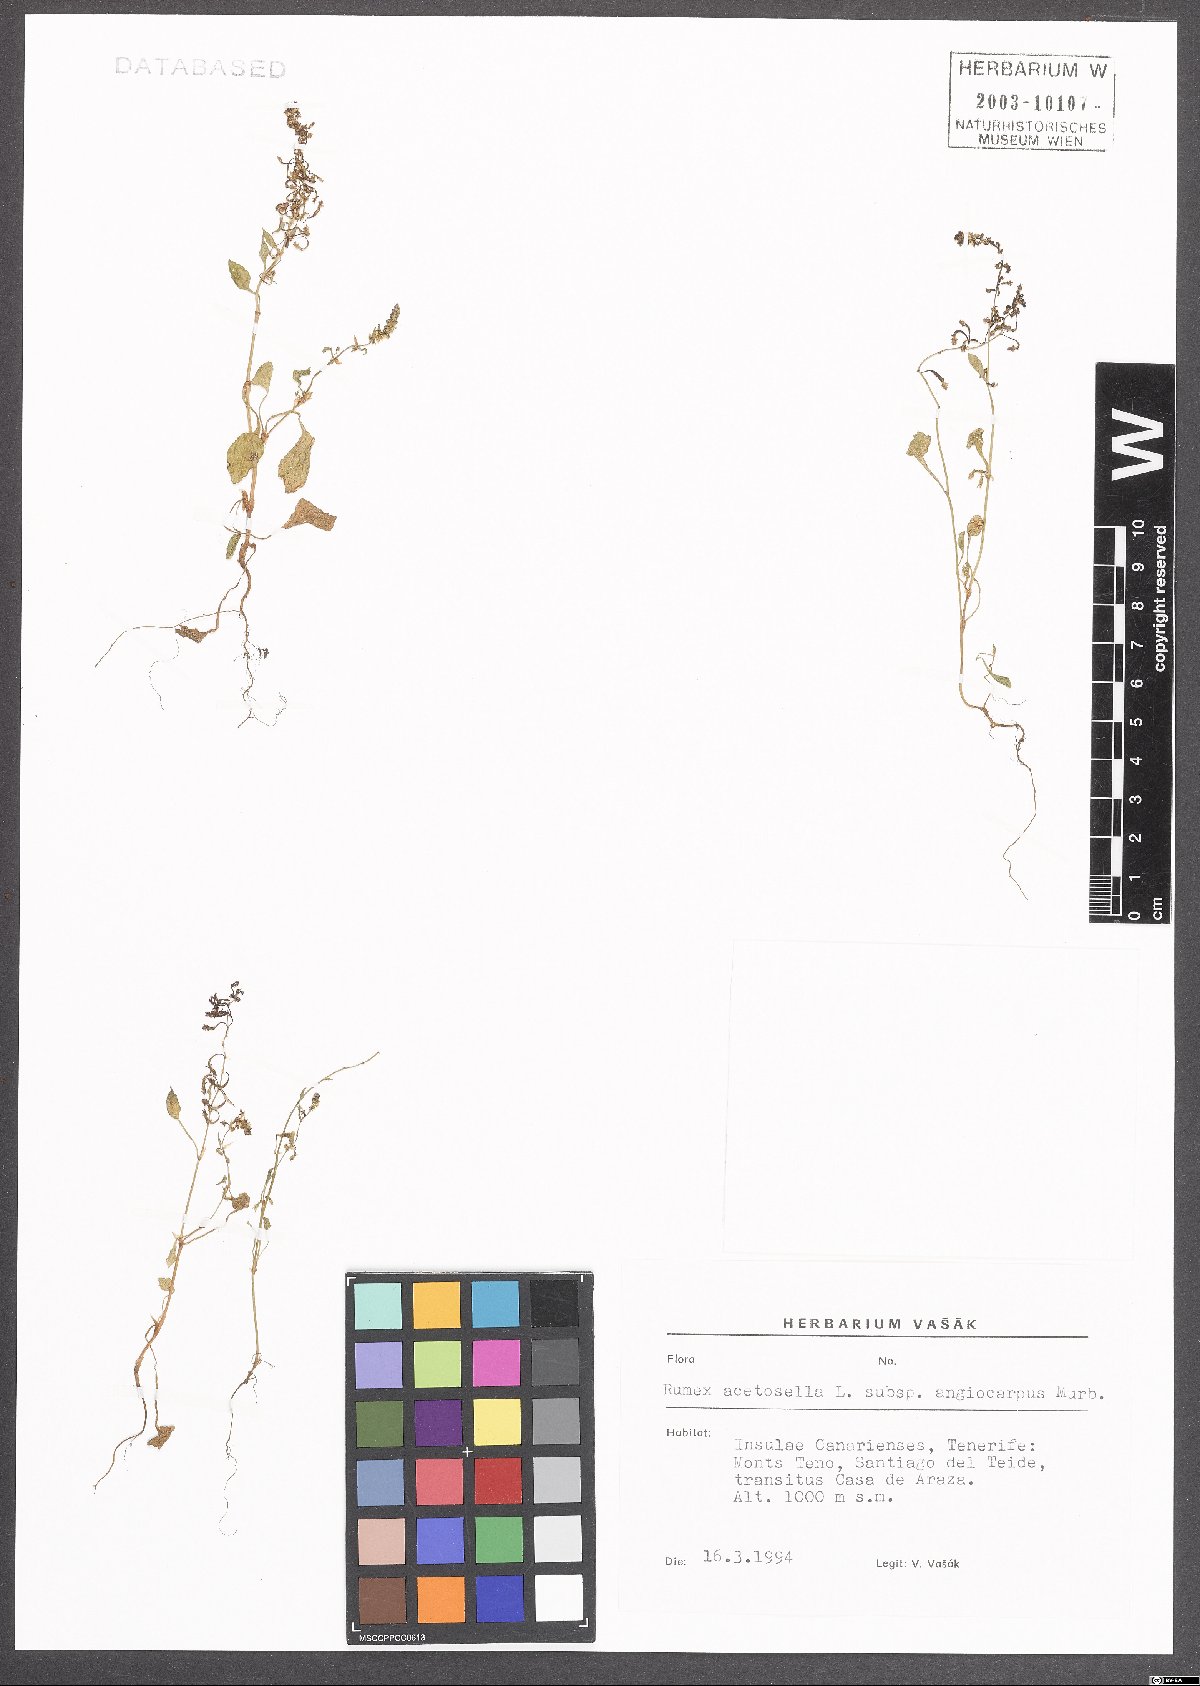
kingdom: Plantae
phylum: Tracheophyta
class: Magnoliopsida
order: Caryophyllales
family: Polygonaceae
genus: Rumex
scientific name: Rumex acetosella
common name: Common sheep sorrel
